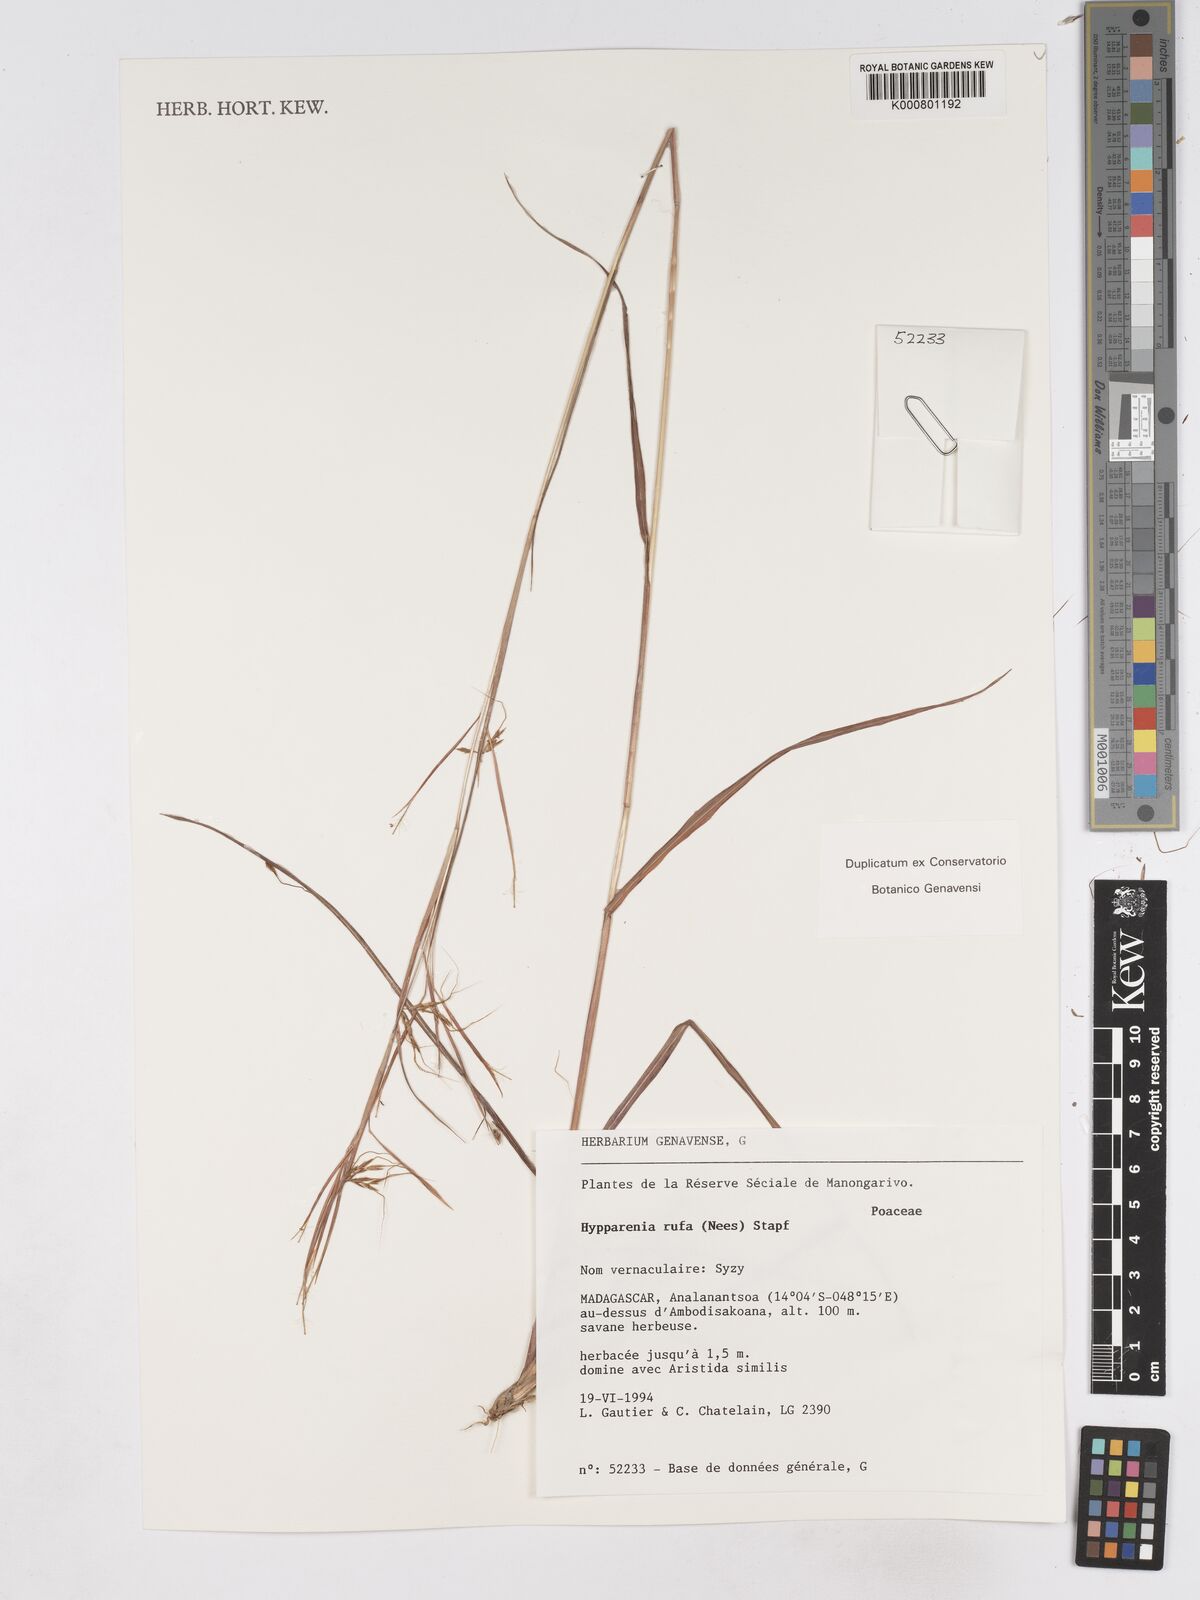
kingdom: Plantae
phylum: Tracheophyta
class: Liliopsida
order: Poales
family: Poaceae
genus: Hyparrhenia
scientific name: Hyparrhenia rufa
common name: Jaraguagrass
